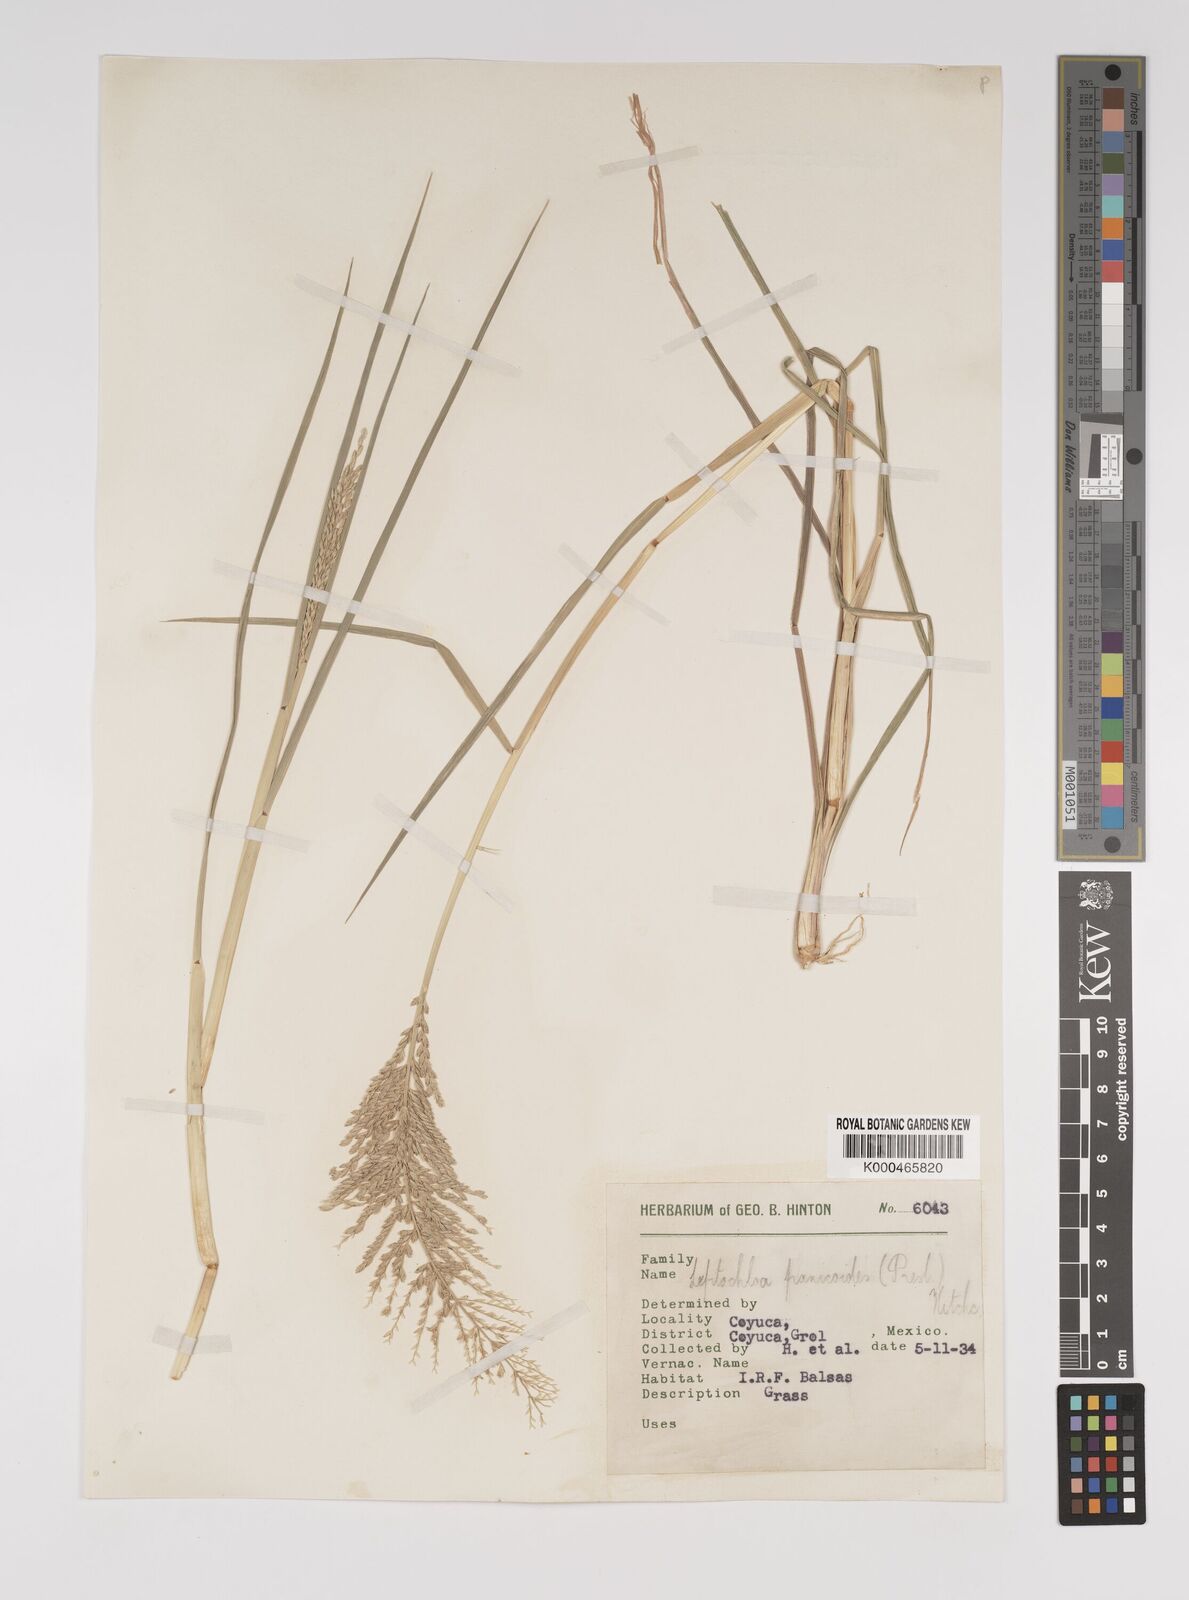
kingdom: Plantae
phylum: Tracheophyta
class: Liliopsida
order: Poales
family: Poaceae
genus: Leptochloa
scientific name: Leptochloa panicoides
